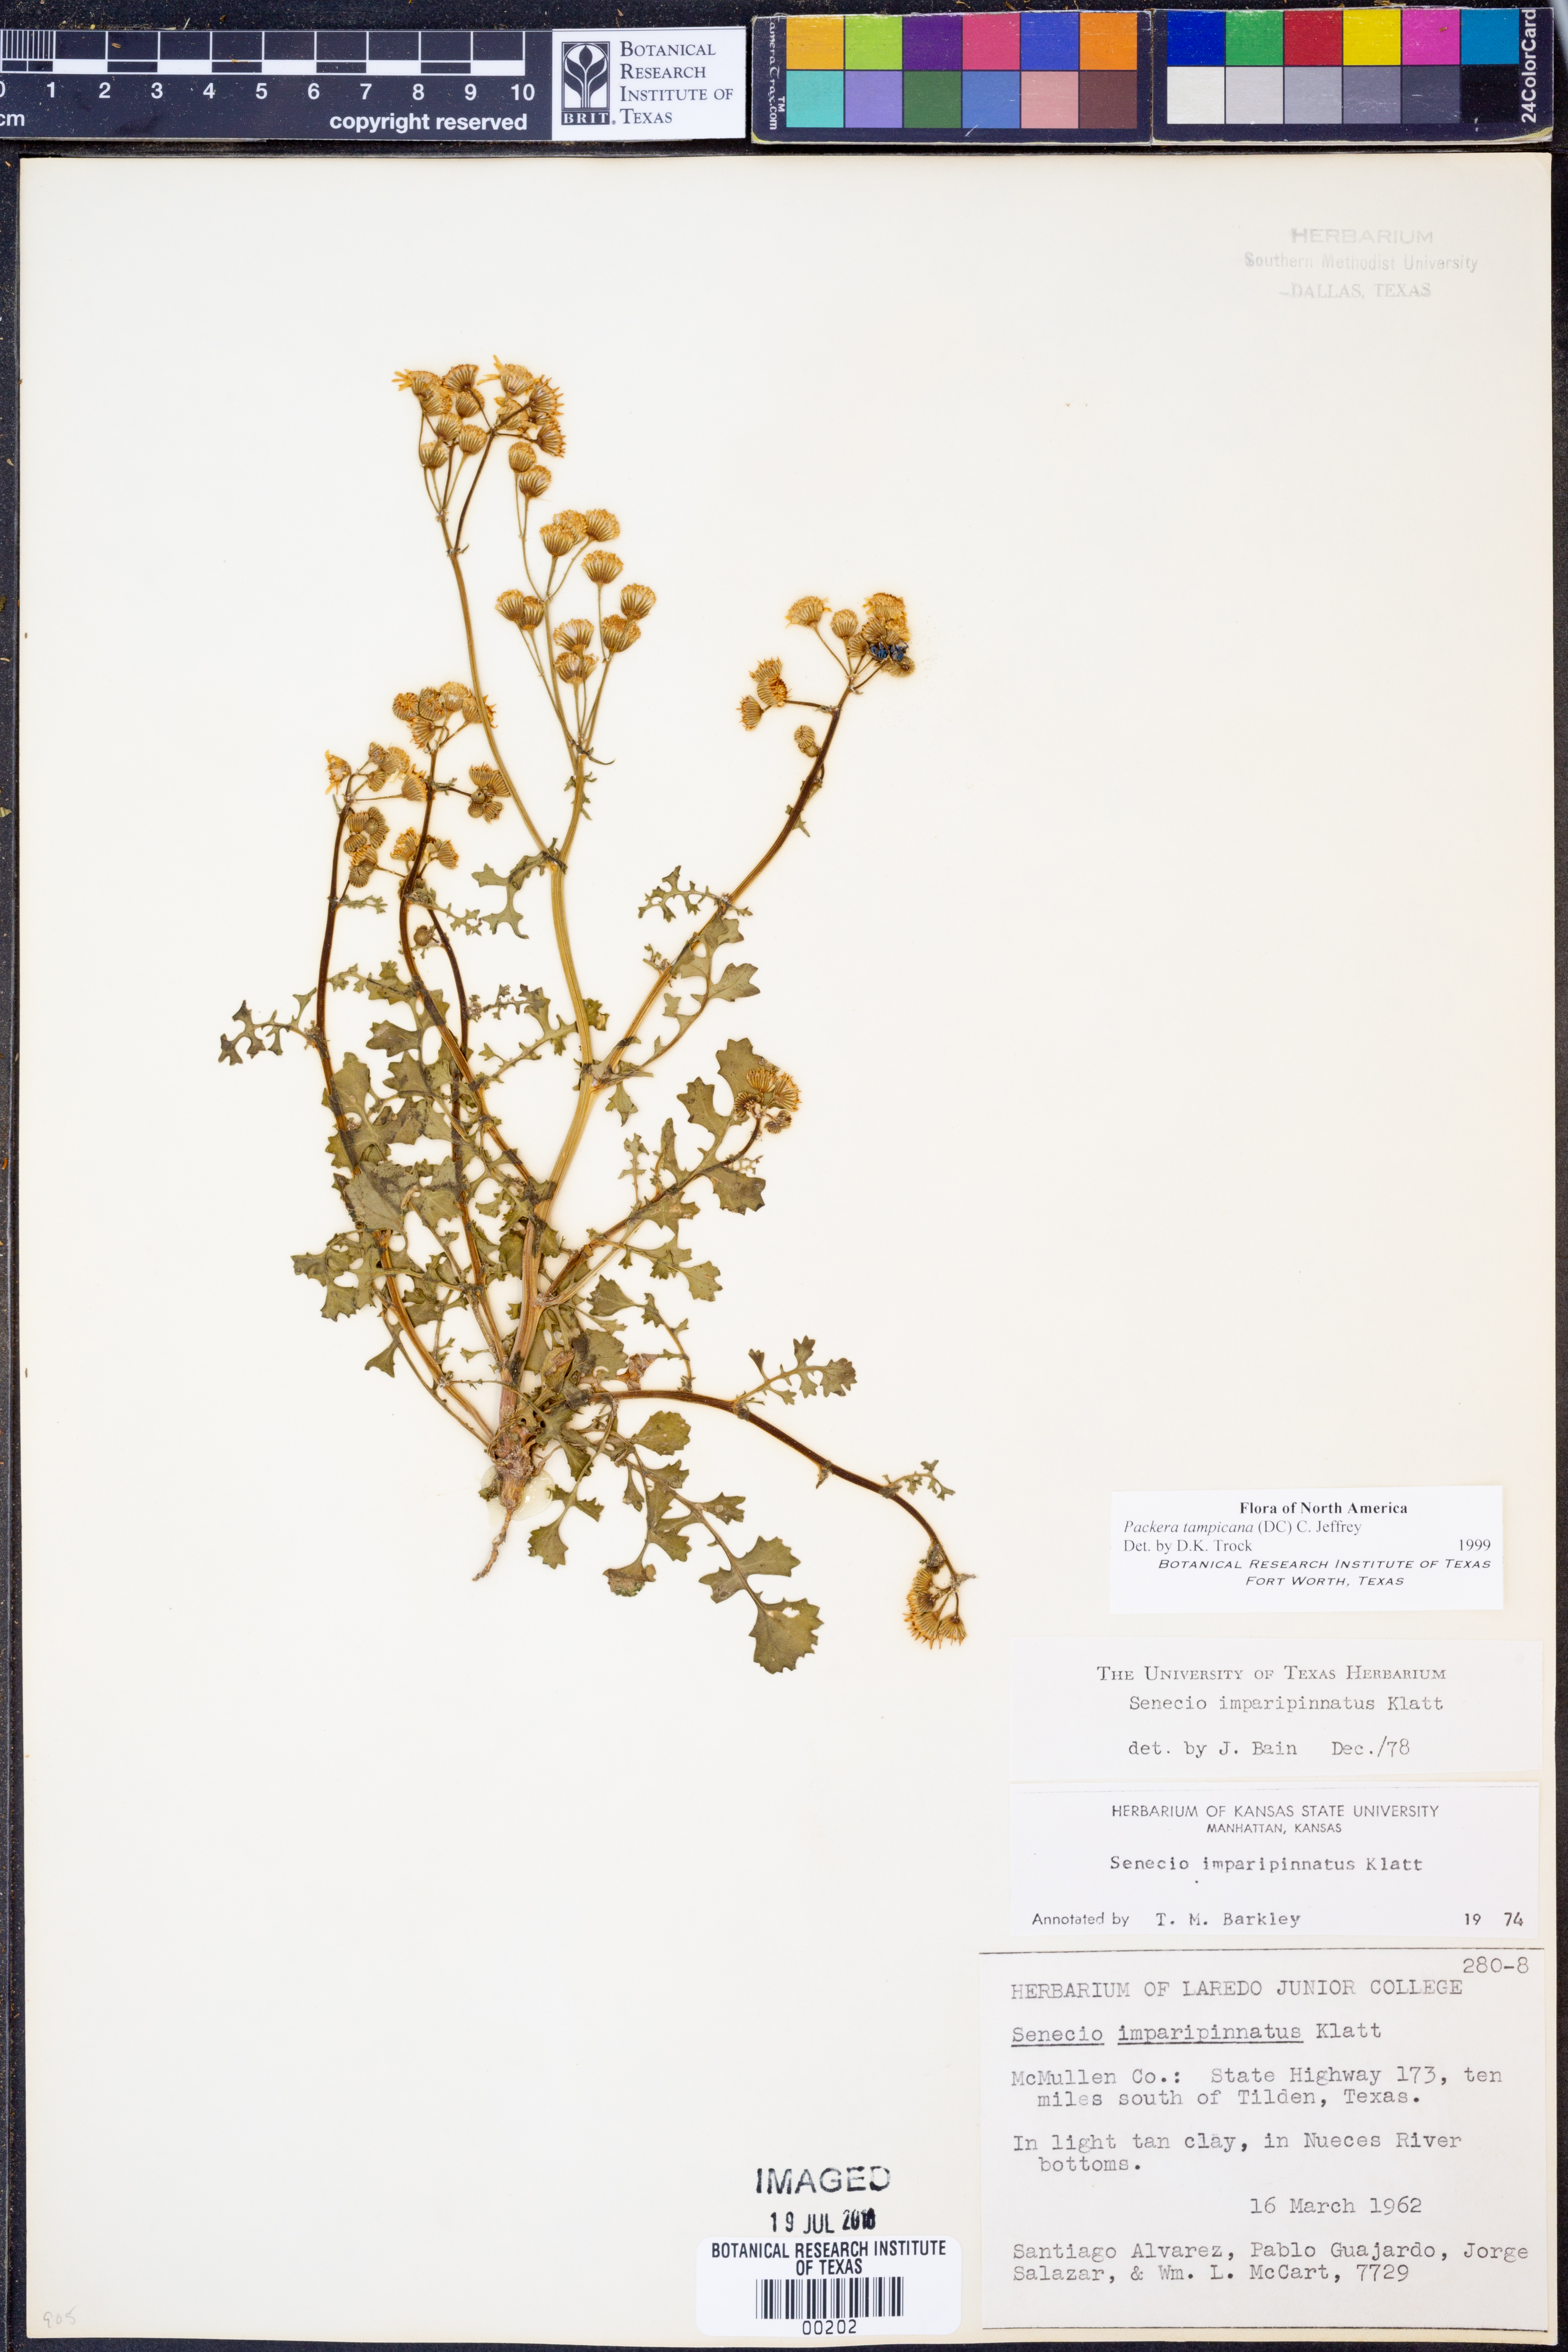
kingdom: Plantae
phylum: Tracheophyta
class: Magnoliopsida
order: Asterales
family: Asteraceae
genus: Packera
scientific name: Packera tampicana
